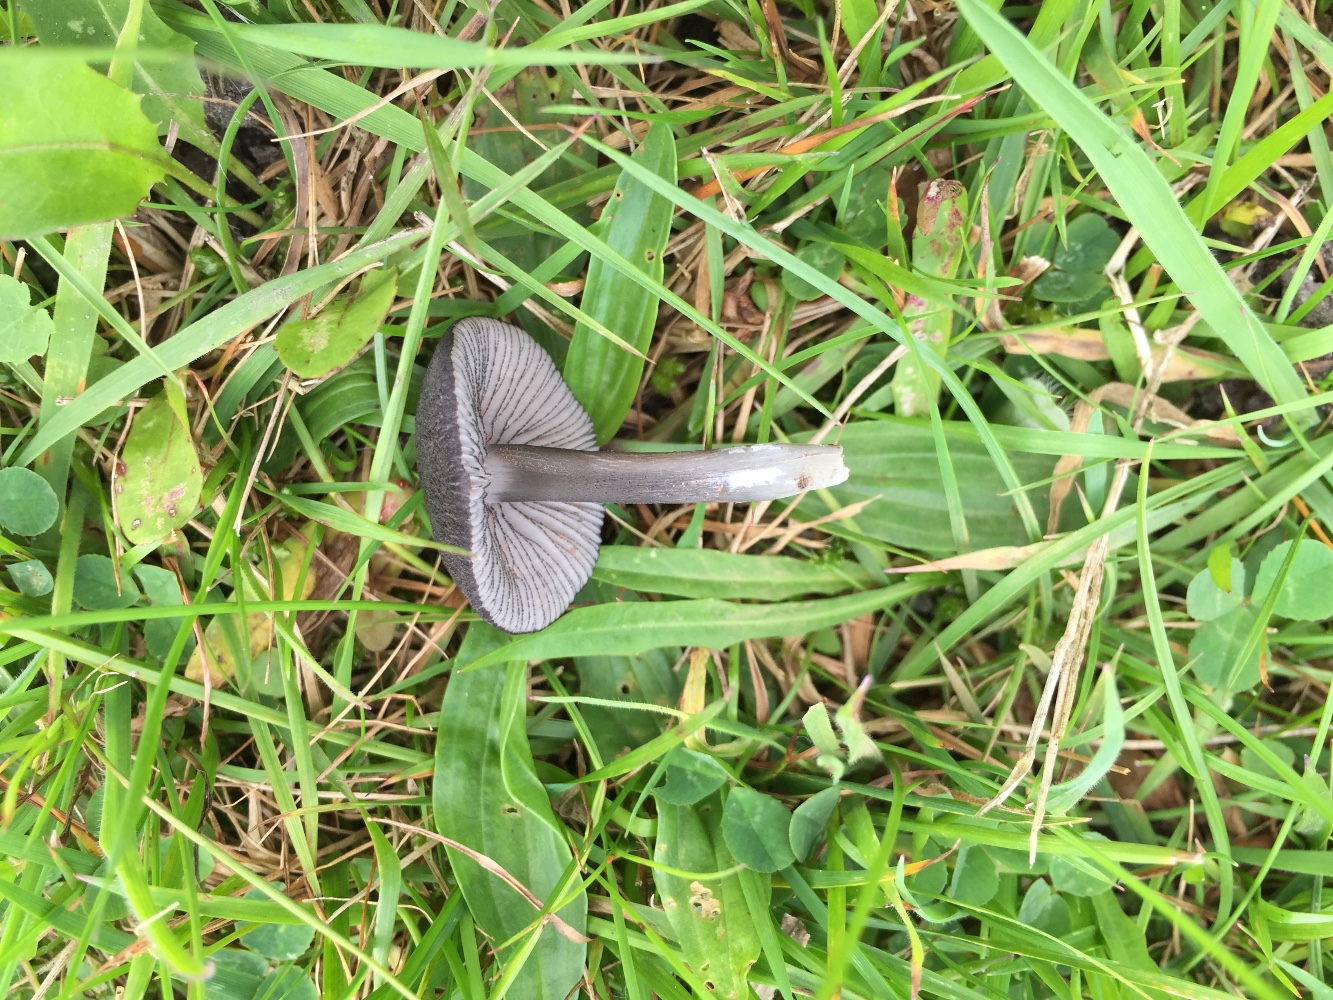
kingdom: Fungi
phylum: Basidiomycota
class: Agaricomycetes
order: Agaricales
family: Entolomataceae
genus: Entoloma
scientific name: Entoloma
